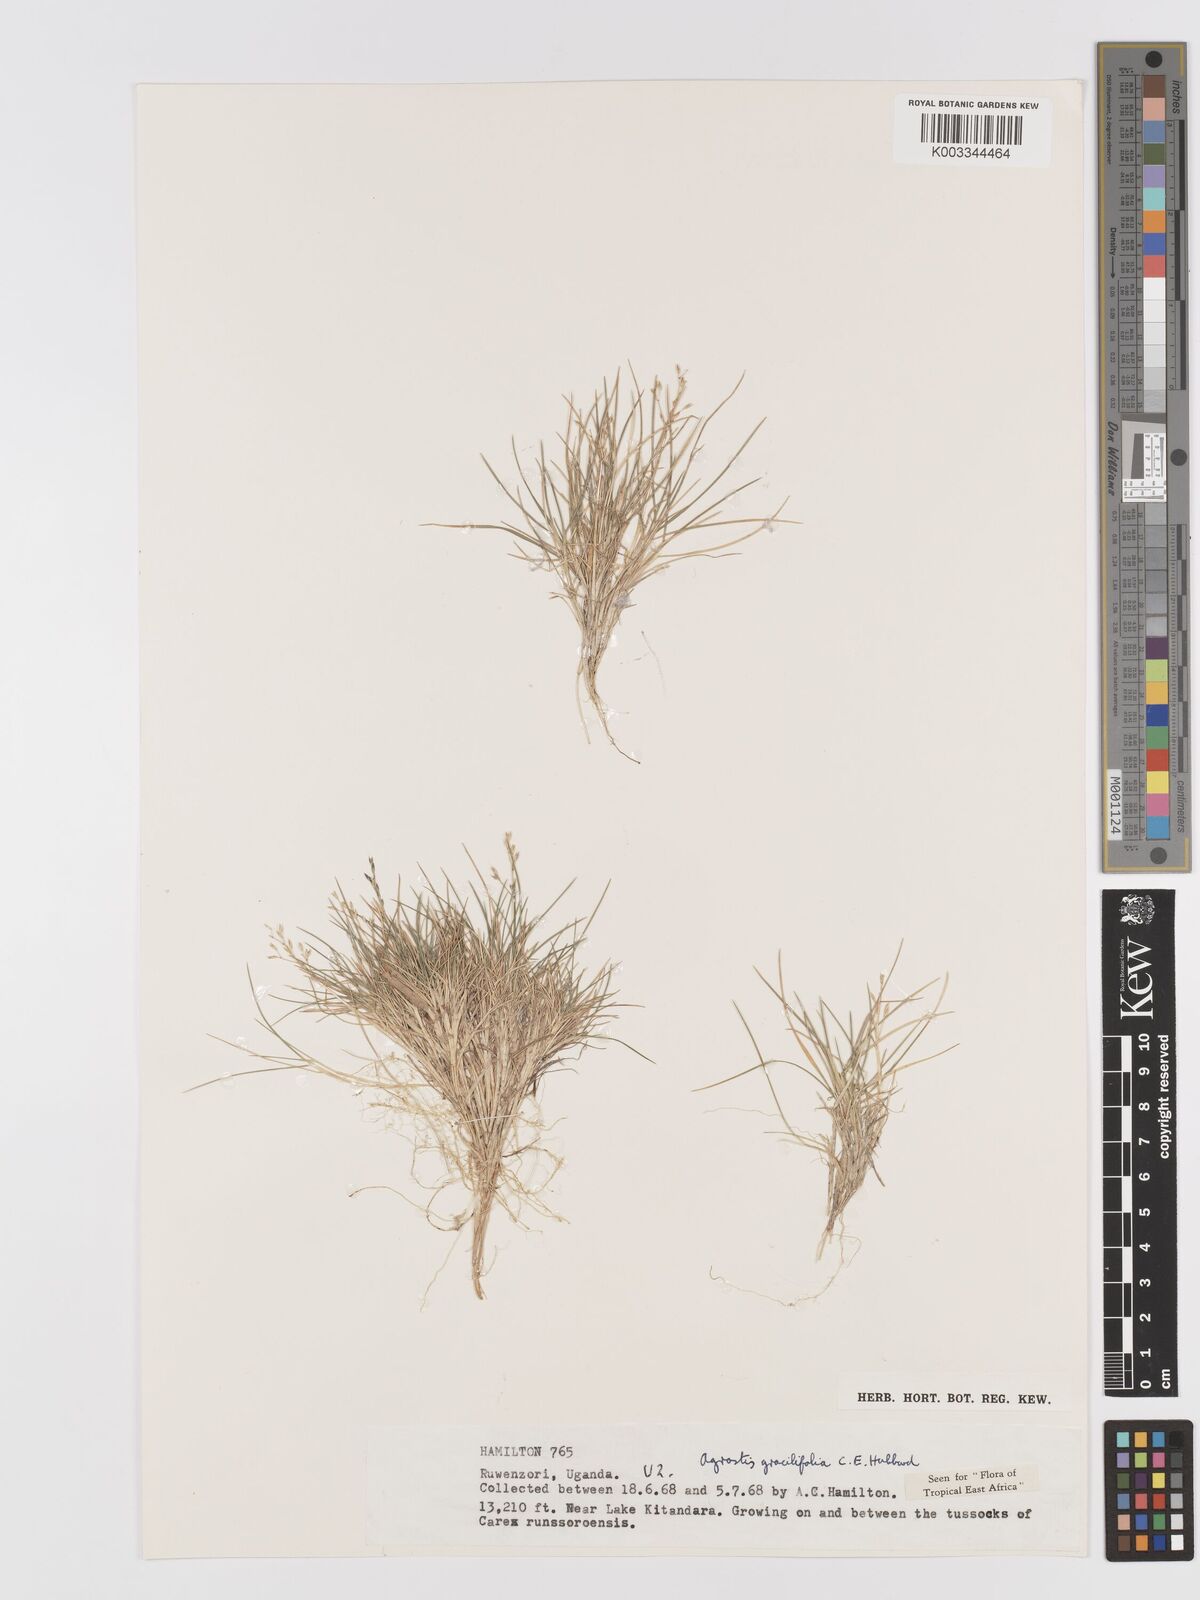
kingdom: Plantae
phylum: Tracheophyta
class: Liliopsida
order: Poales
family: Poaceae
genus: Agrostis
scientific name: Agrostis gracilifolia
